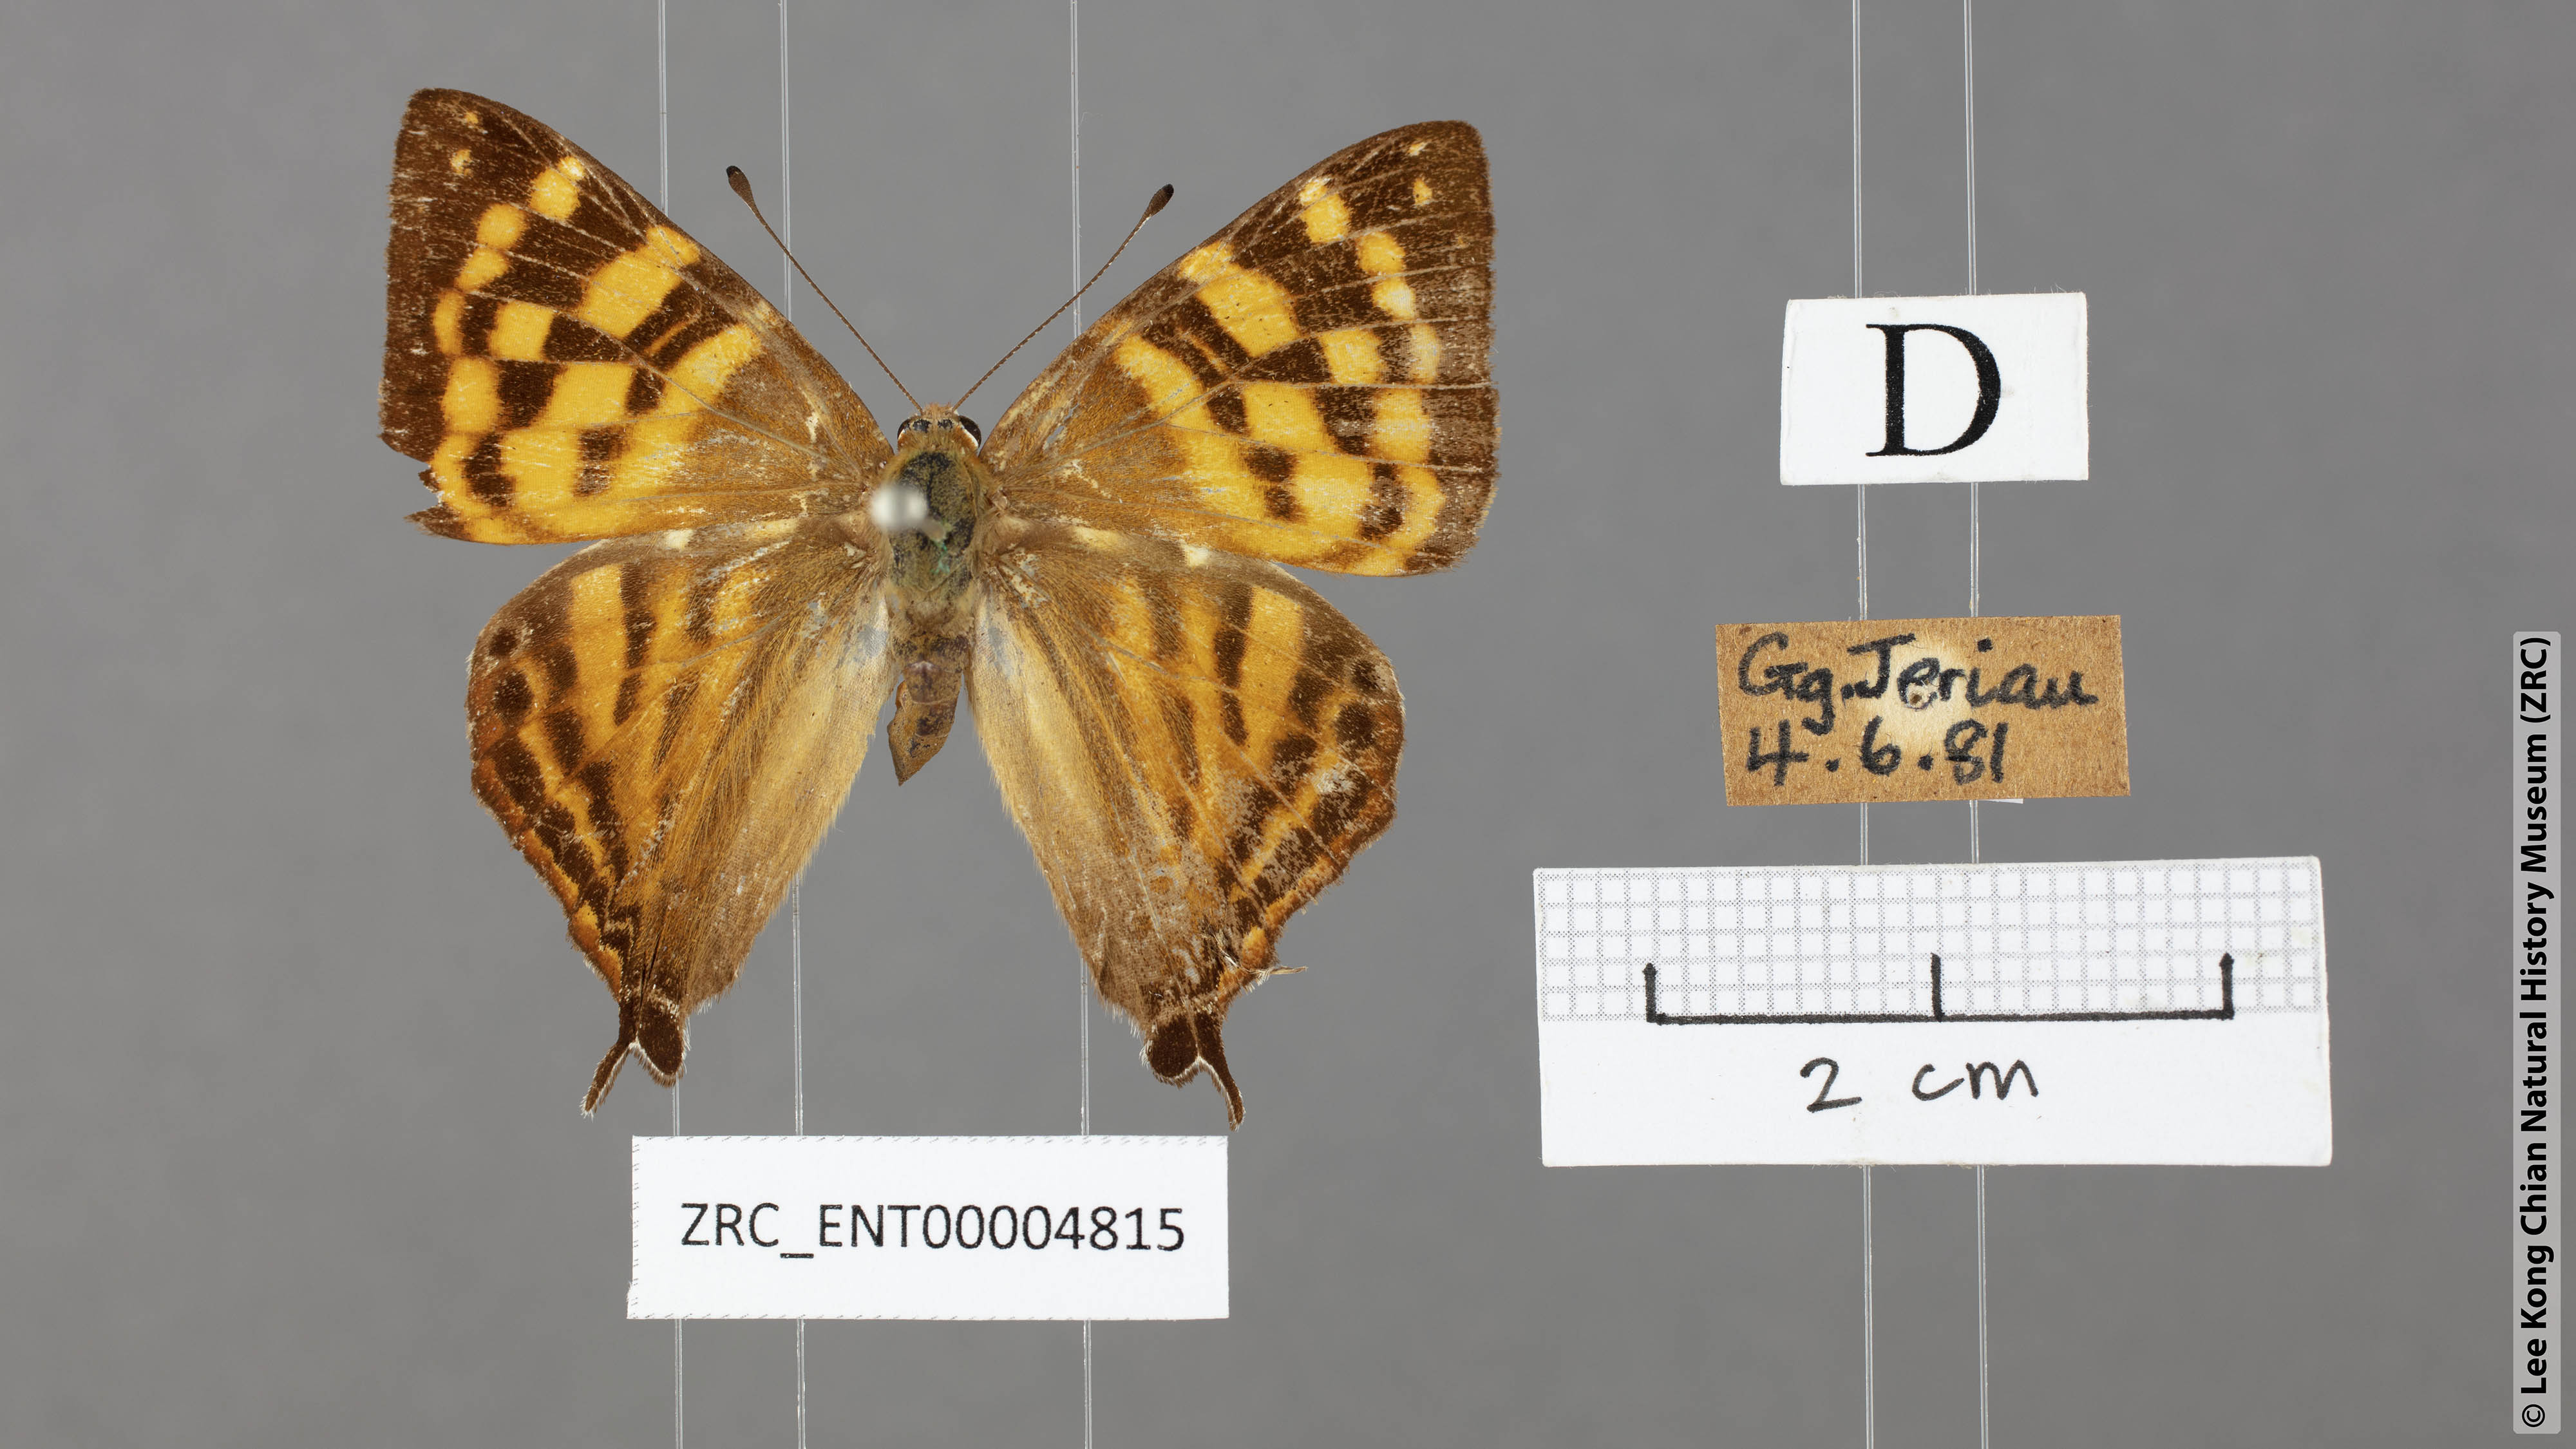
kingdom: Animalia
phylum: Arthropoda
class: Insecta
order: Lepidoptera
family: Lycaenidae
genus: Dodona
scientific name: Dodona deodata
